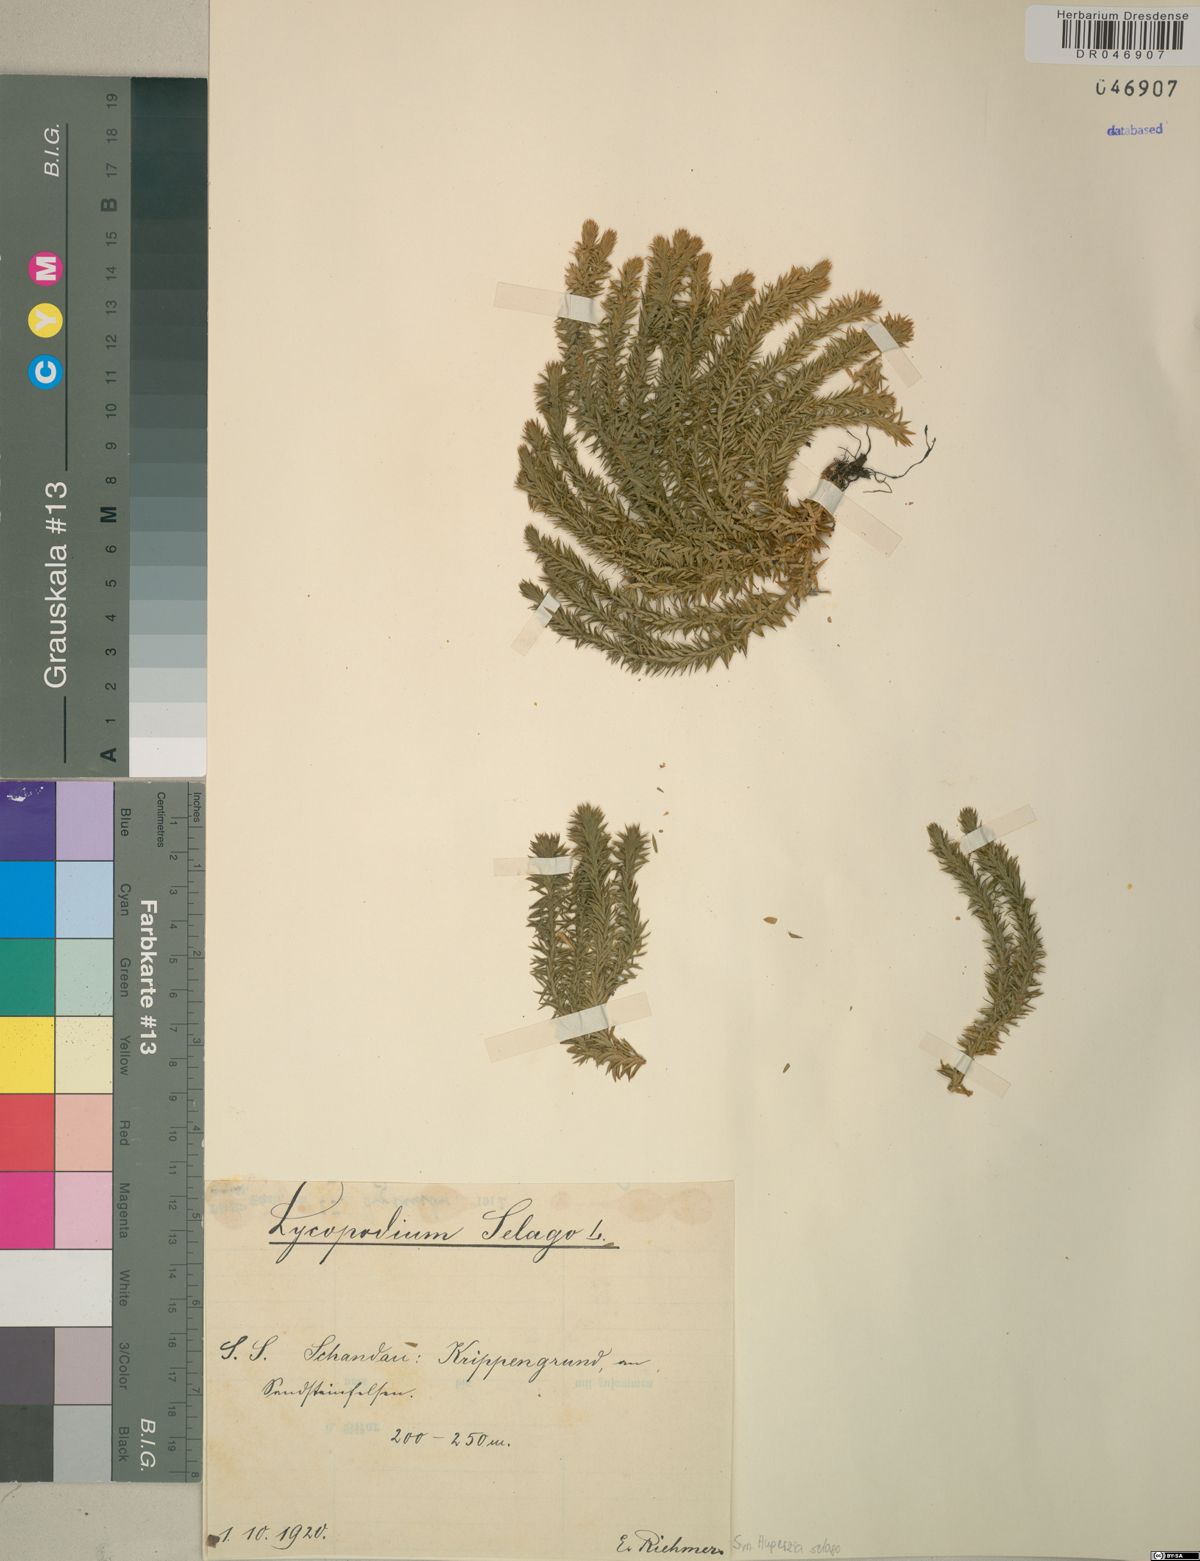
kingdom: Plantae
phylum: Tracheophyta
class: Lycopodiopsida
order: Lycopodiales
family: Lycopodiaceae
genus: Huperzia
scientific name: Huperzia selago
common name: Northern firmoss
